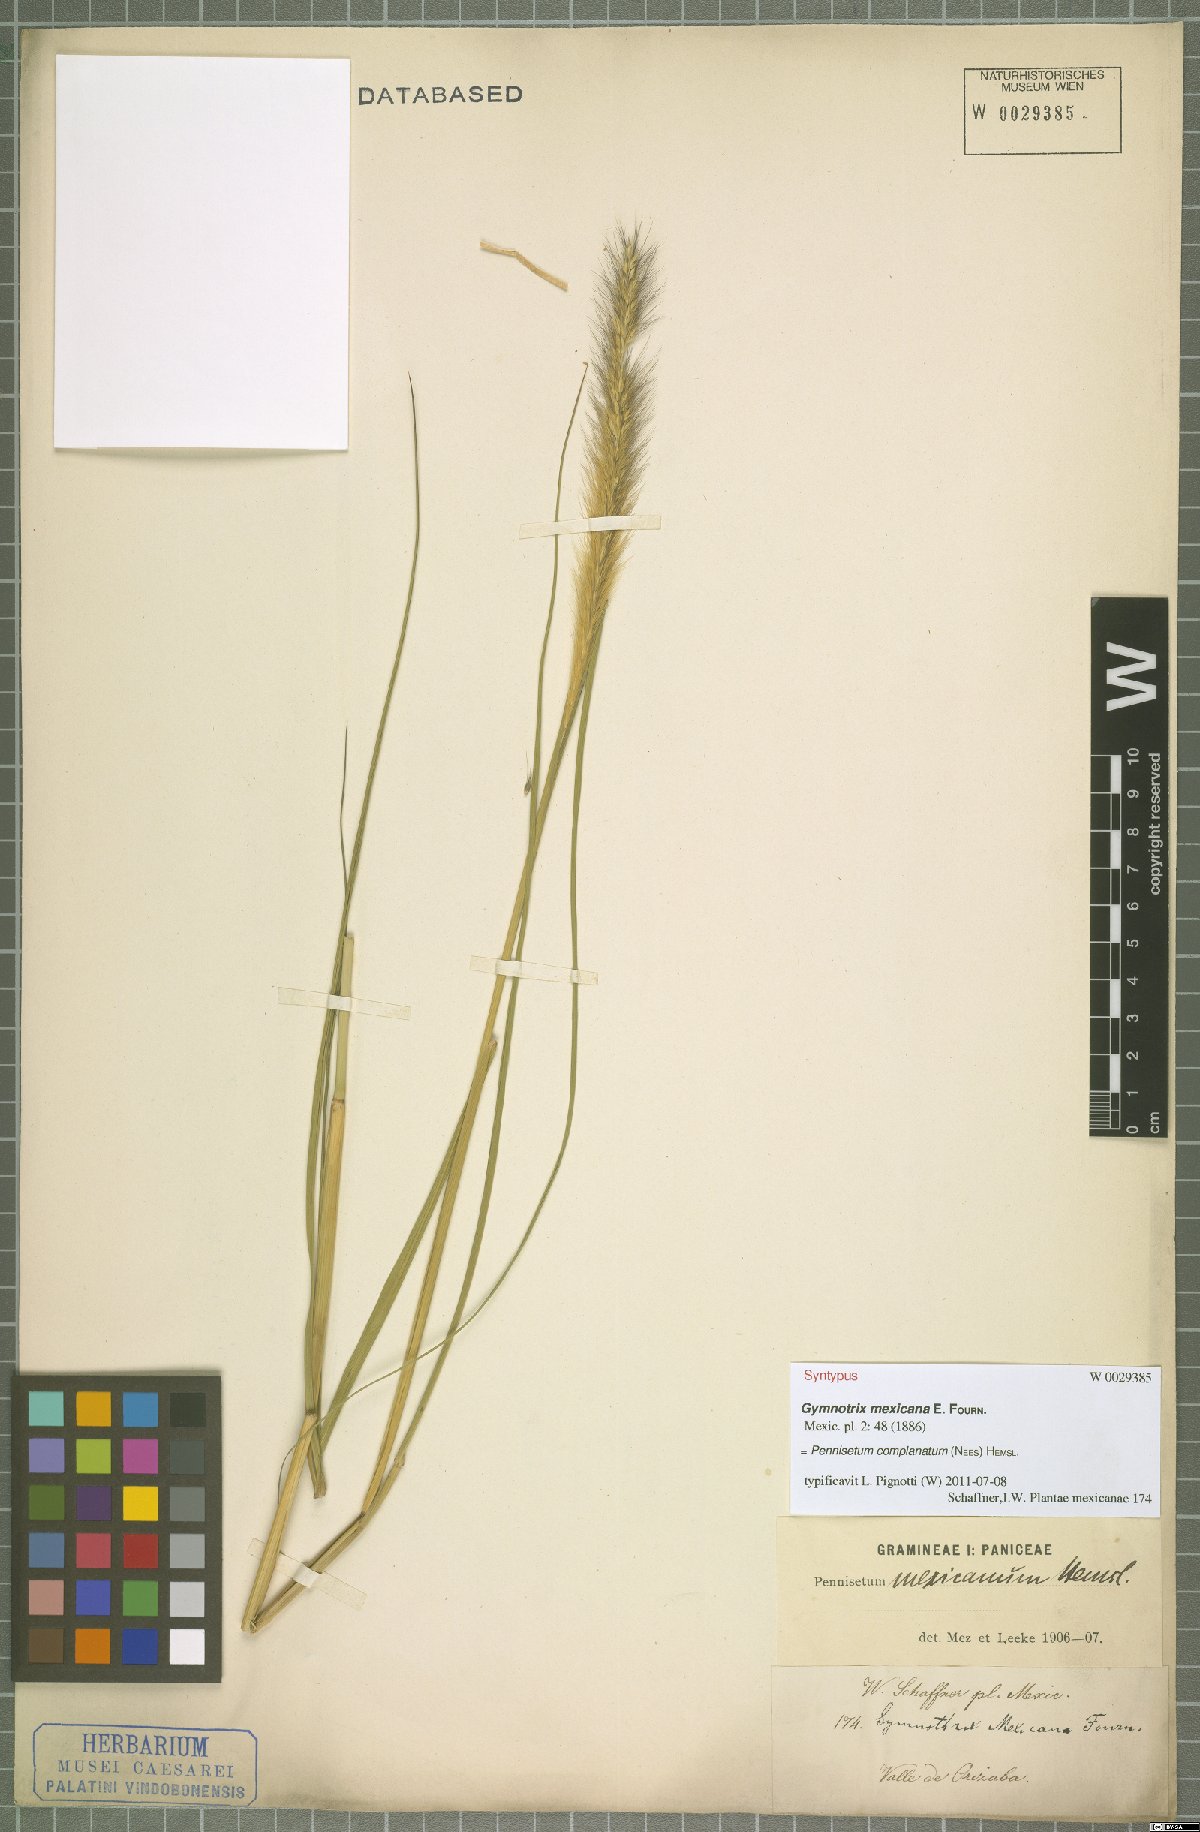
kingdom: Plantae
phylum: Tracheophyta
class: Liliopsida
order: Poales
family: Poaceae
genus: Cenchrus
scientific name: Cenchrus complanatus
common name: Nicaraguan fountaingrass
